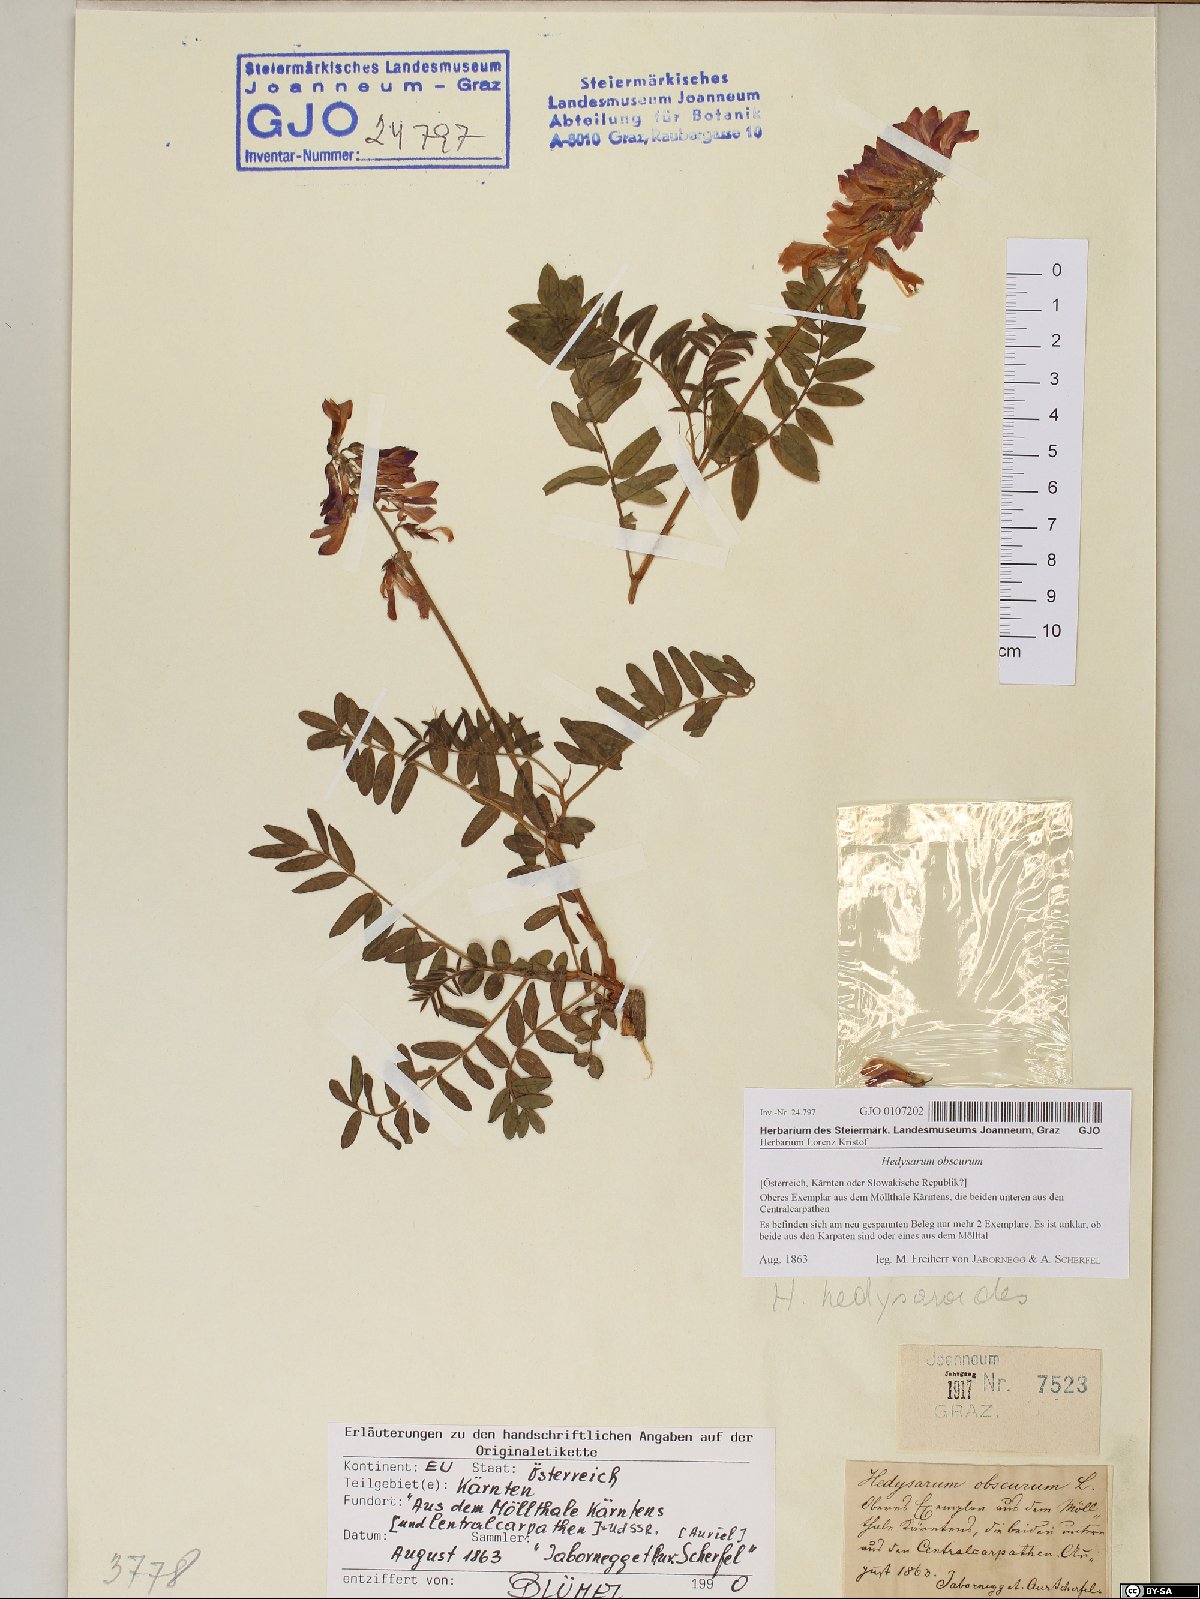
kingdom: Plantae
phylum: Tracheophyta
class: Magnoliopsida
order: Fabales
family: Fabaceae
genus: Hedysarum
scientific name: Hedysarum hedysaroides
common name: Alpine french-honeysuckle
